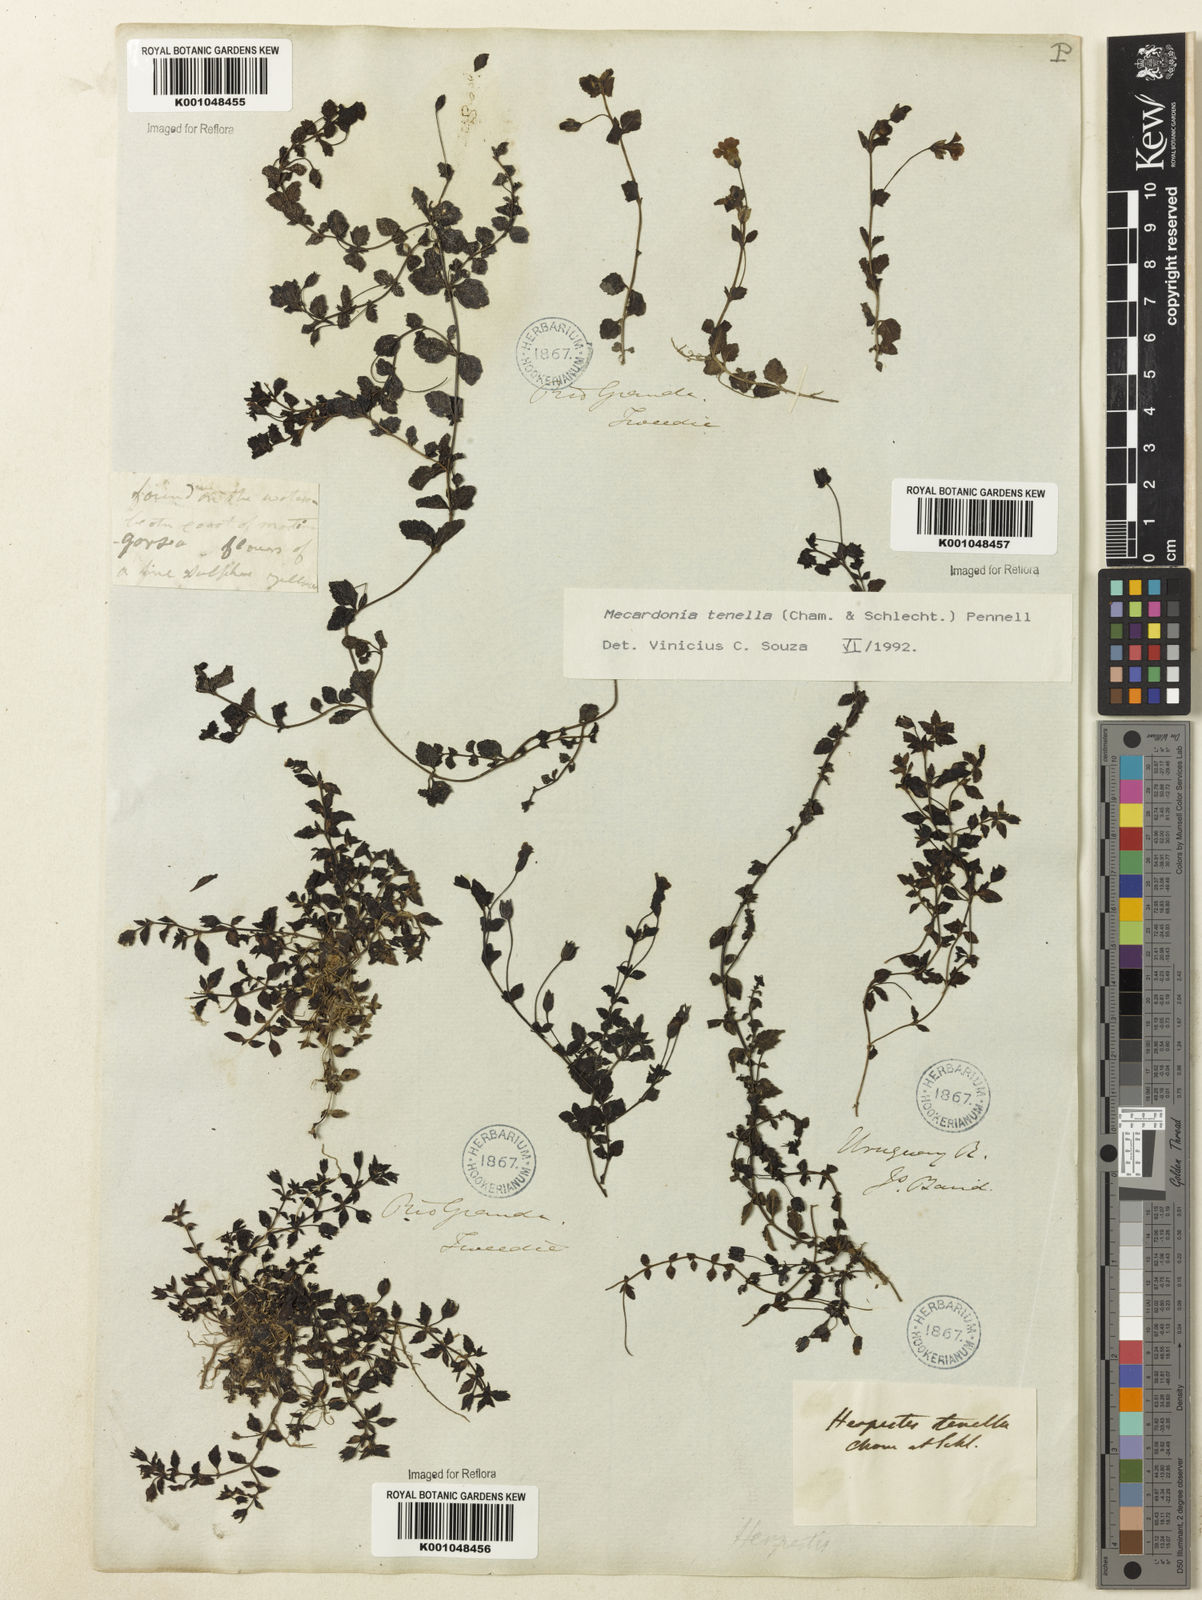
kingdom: Plantae
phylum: Tracheophyta
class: Magnoliopsida
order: Lamiales
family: Plantaginaceae
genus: Mecardonia
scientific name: Mecardonia procumbens
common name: Baby jump-up
